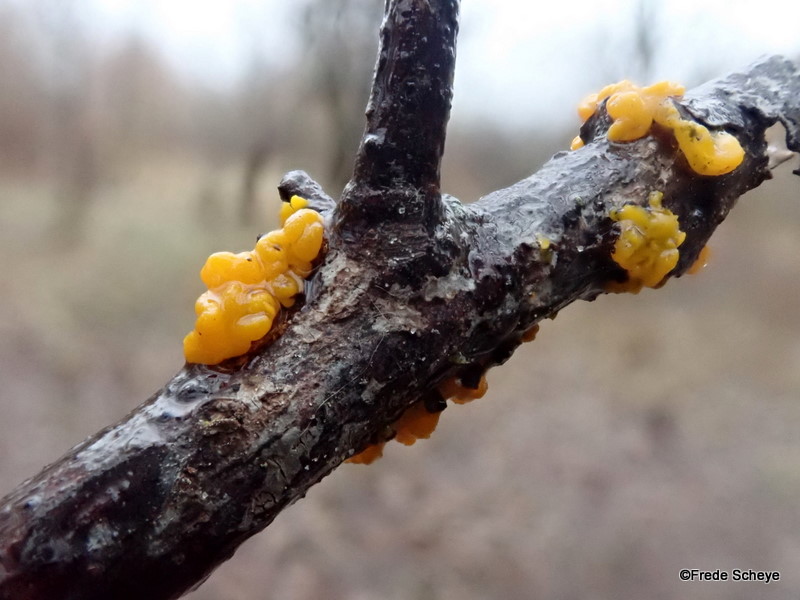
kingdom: Fungi
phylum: Basidiomycota
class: Tremellomycetes
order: Tremellales
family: Tremellaceae
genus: Tremella
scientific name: Tremella mesenterica
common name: gul bævresvamp
